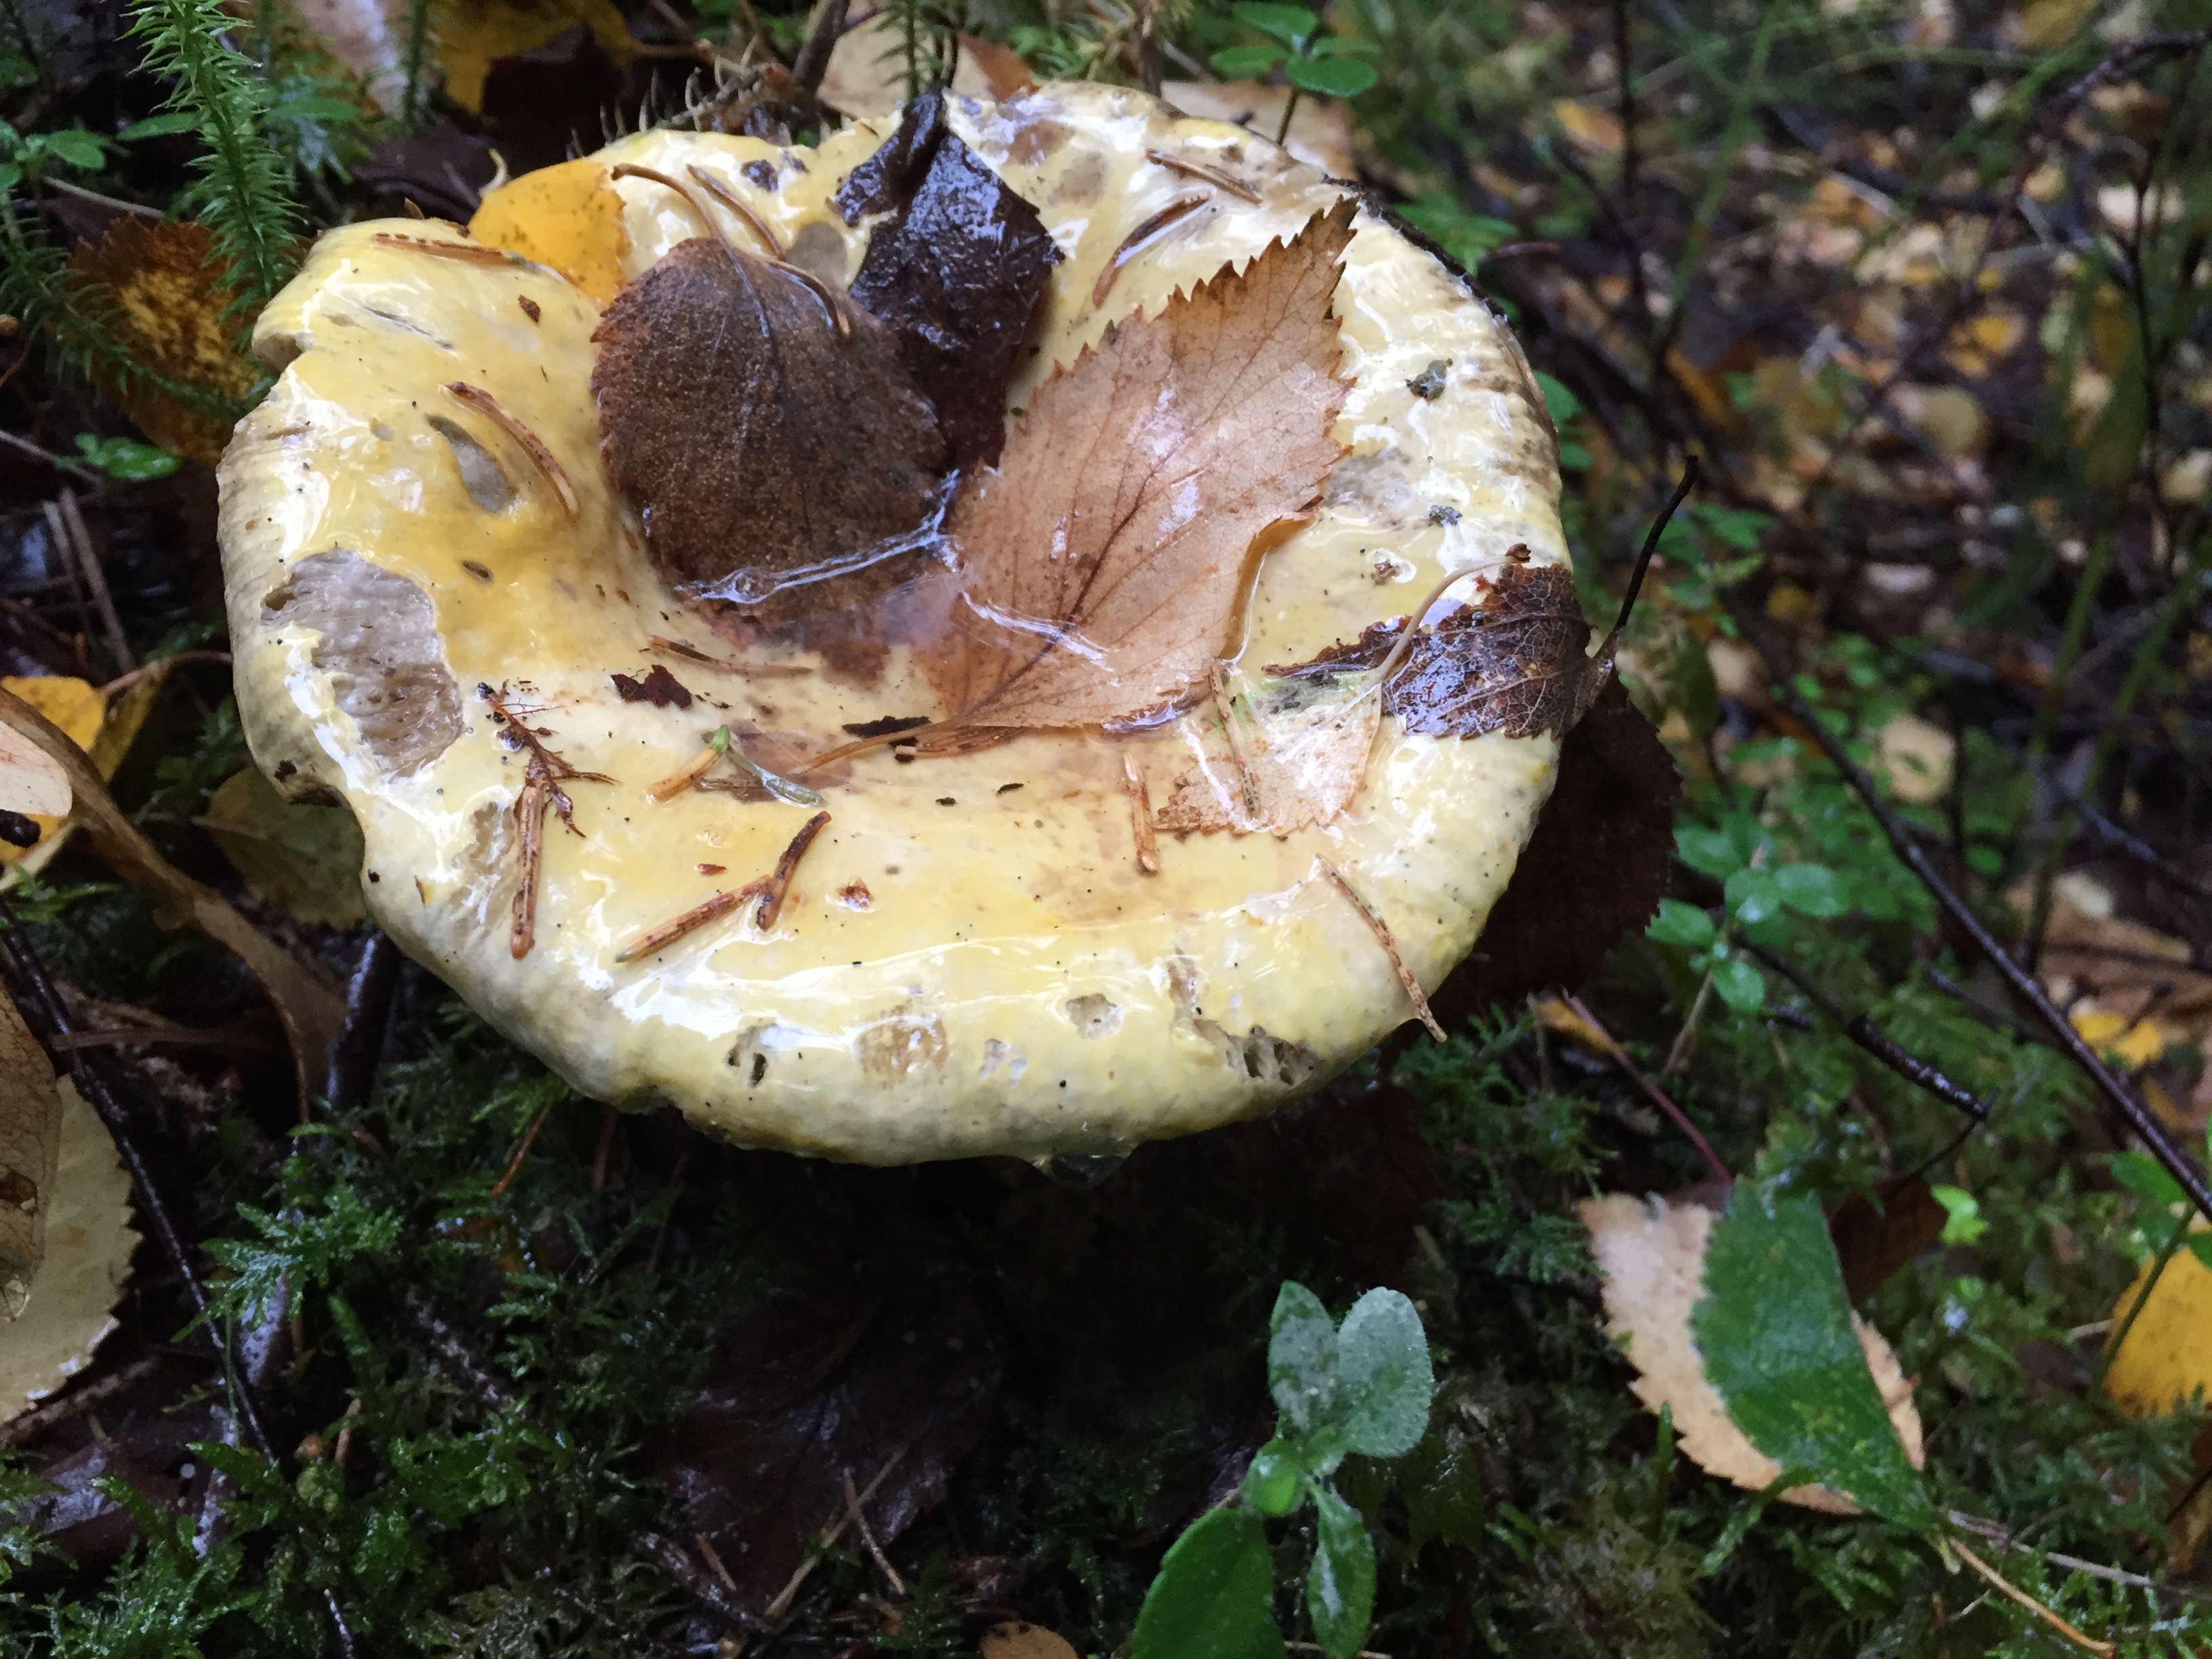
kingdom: Fungi
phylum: Basidiomycota
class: Agaricomycetes
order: Russulales
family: Russulaceae
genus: Russula
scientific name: Russula claroflava
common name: The yellow swamp brittlegill
